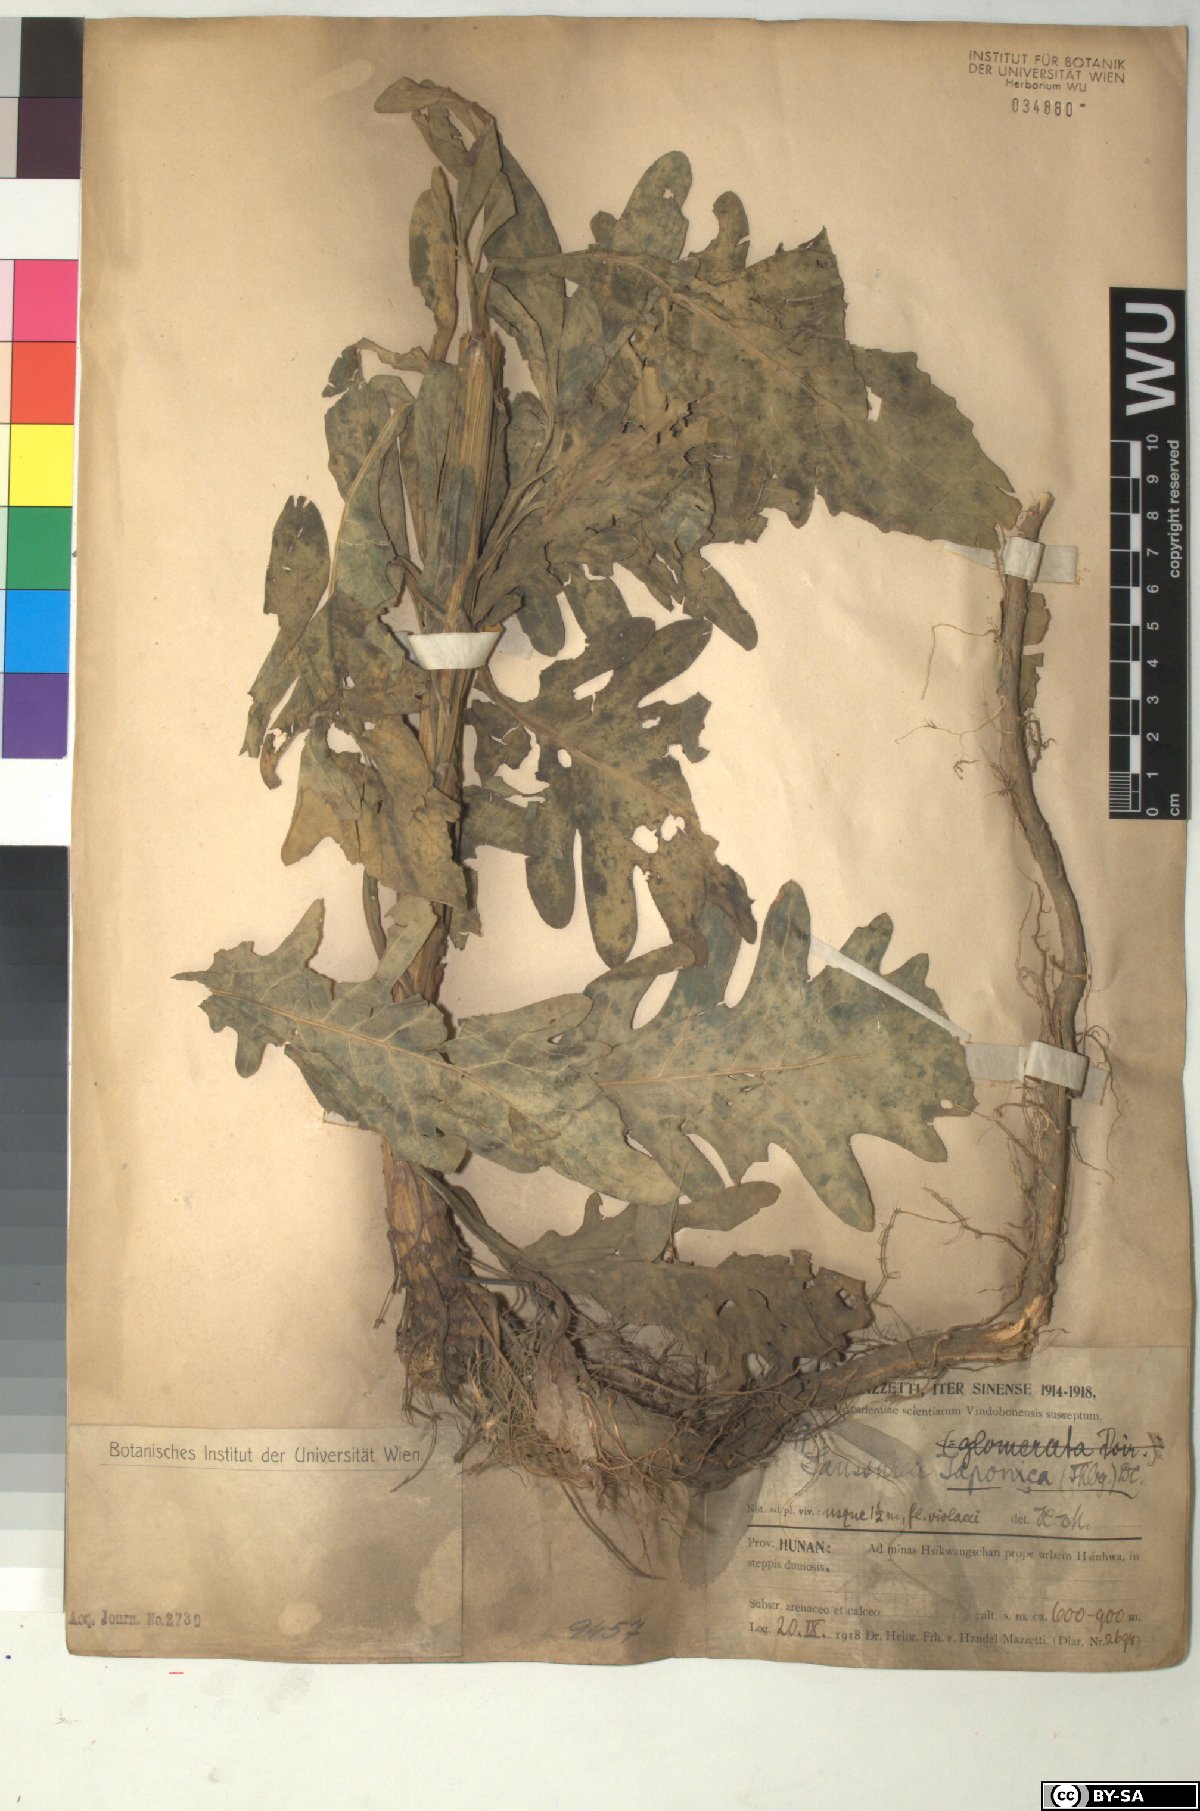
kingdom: Plantae
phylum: Tracheophyta
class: Magnoliopsida
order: Asterales
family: Asteraceae
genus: Saussurea
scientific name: Saussurea japonica
